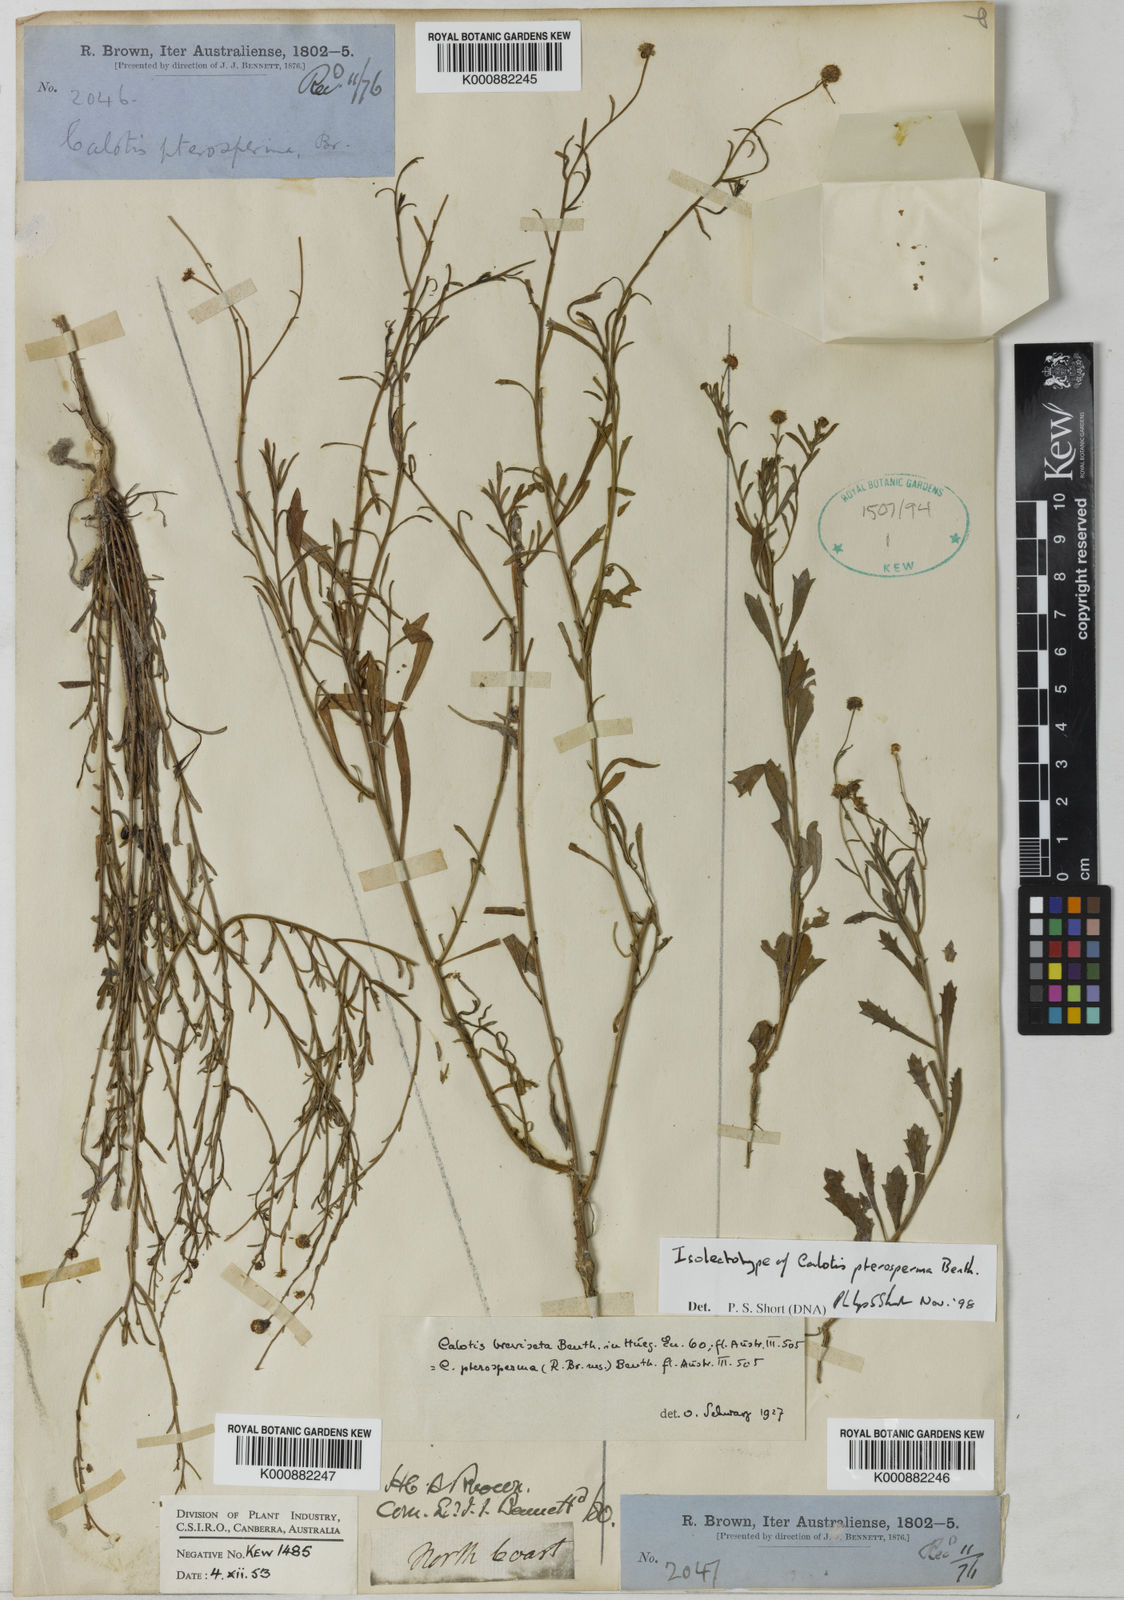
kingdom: Plantae
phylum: Tracheophyta
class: Magnoliopsida
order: Asterales
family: Asteraceae
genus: Calotis
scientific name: Calotis breviseta
